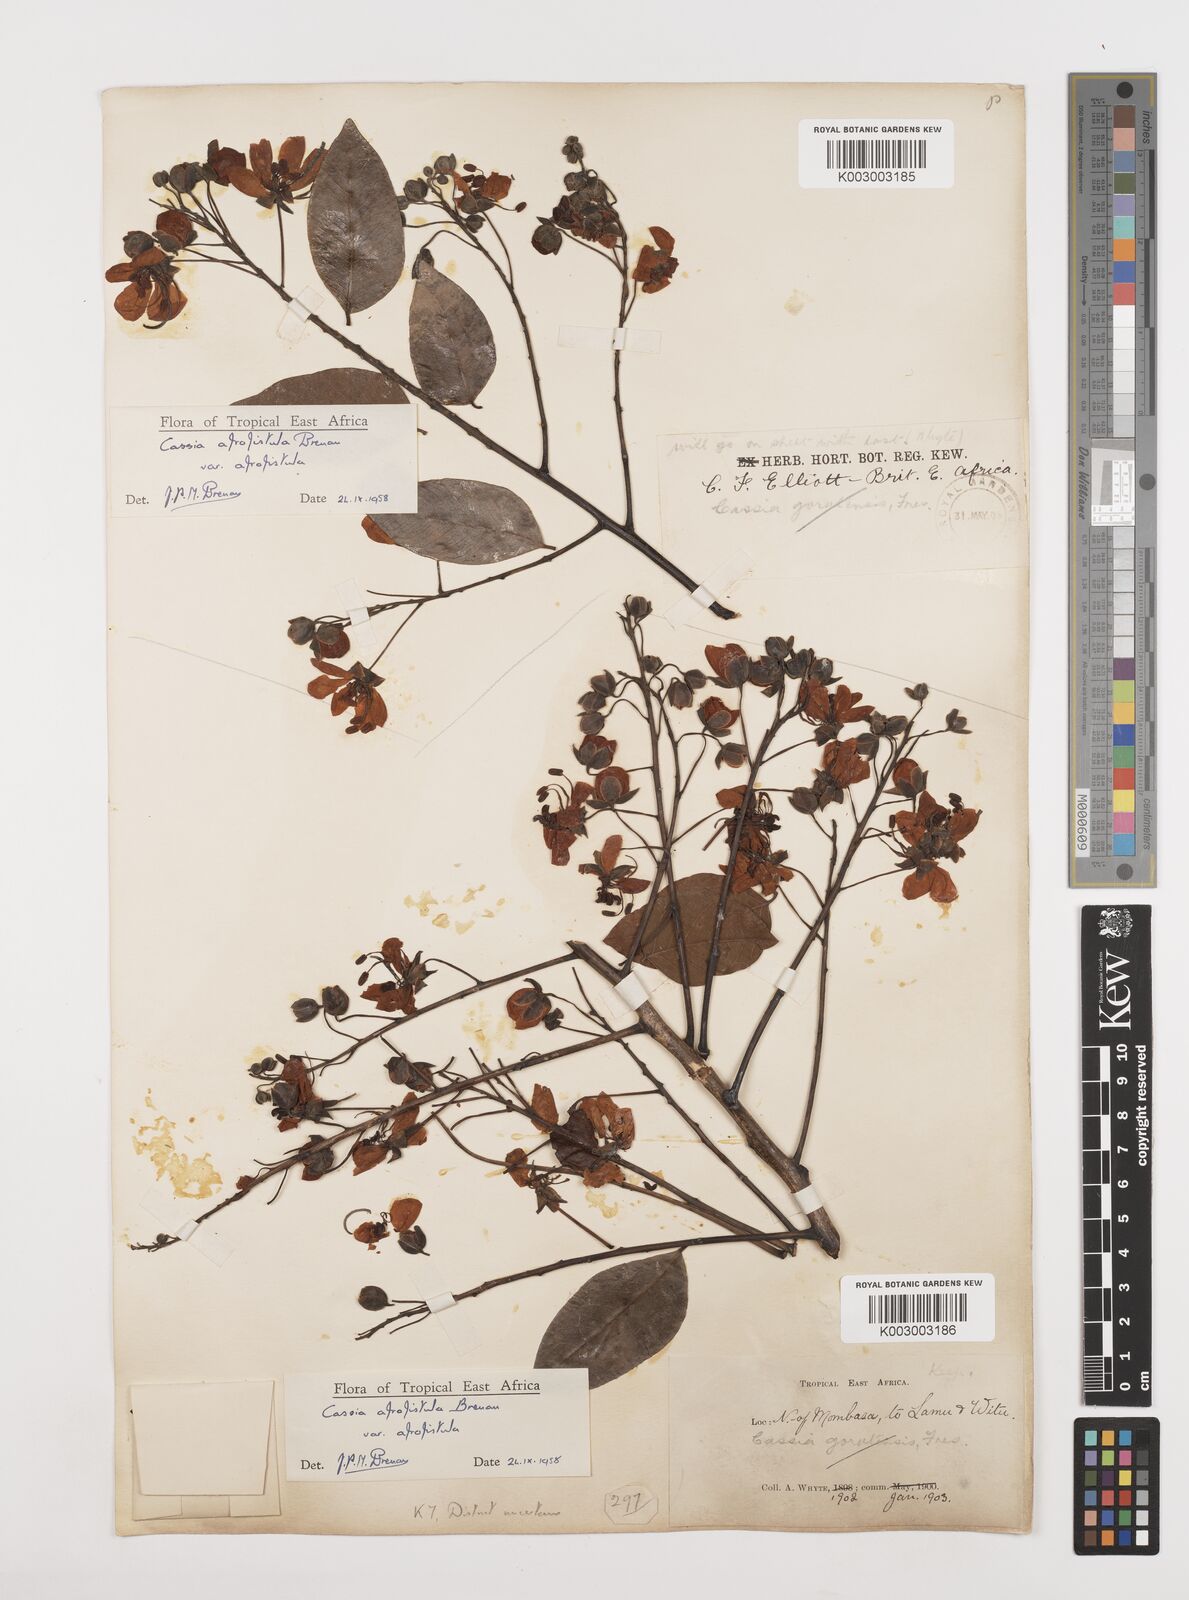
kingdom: Plantae
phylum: Tracheophyta
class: Magnoliopsida
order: Fabales
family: Fabaceae
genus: Cassia
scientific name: Cassia afrofistula
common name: Kenyan shower
